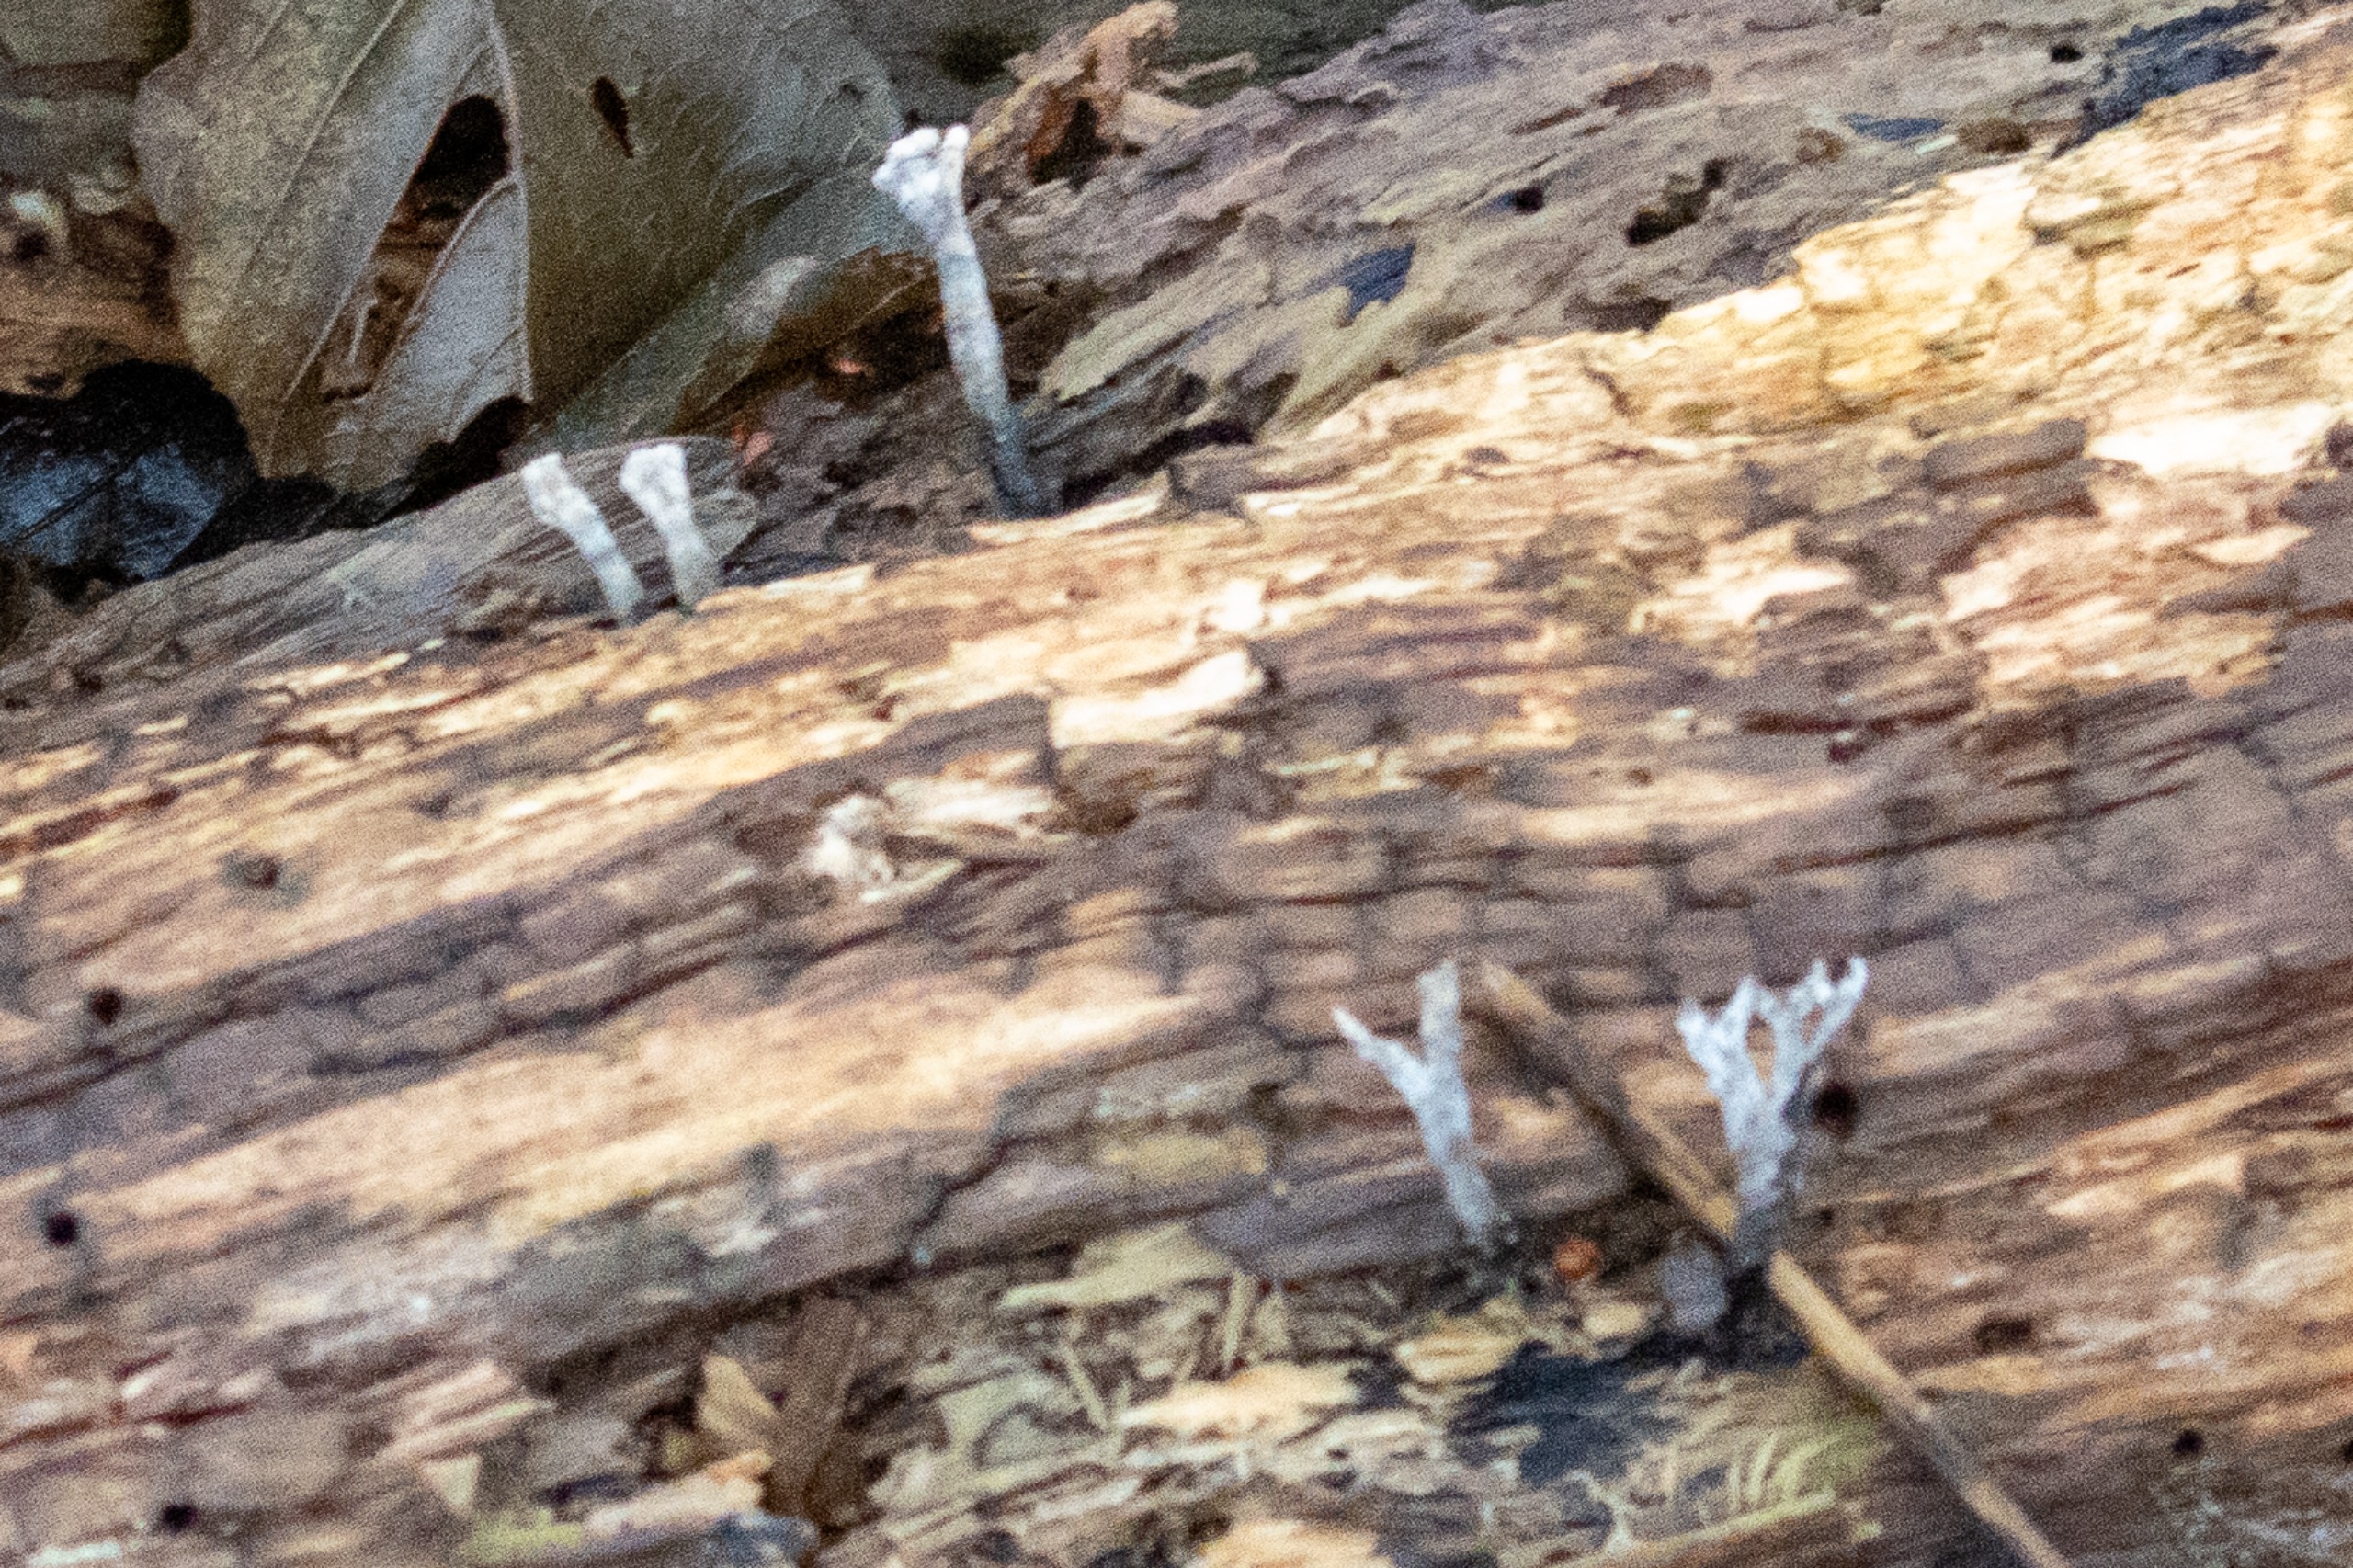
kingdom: Fungi
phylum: Ascomycota
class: Sordariomycetes
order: Xylariales
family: Xylariaceae
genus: Xylaria
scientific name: Xylaria hypoxylon
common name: Grenet stødsvamp
